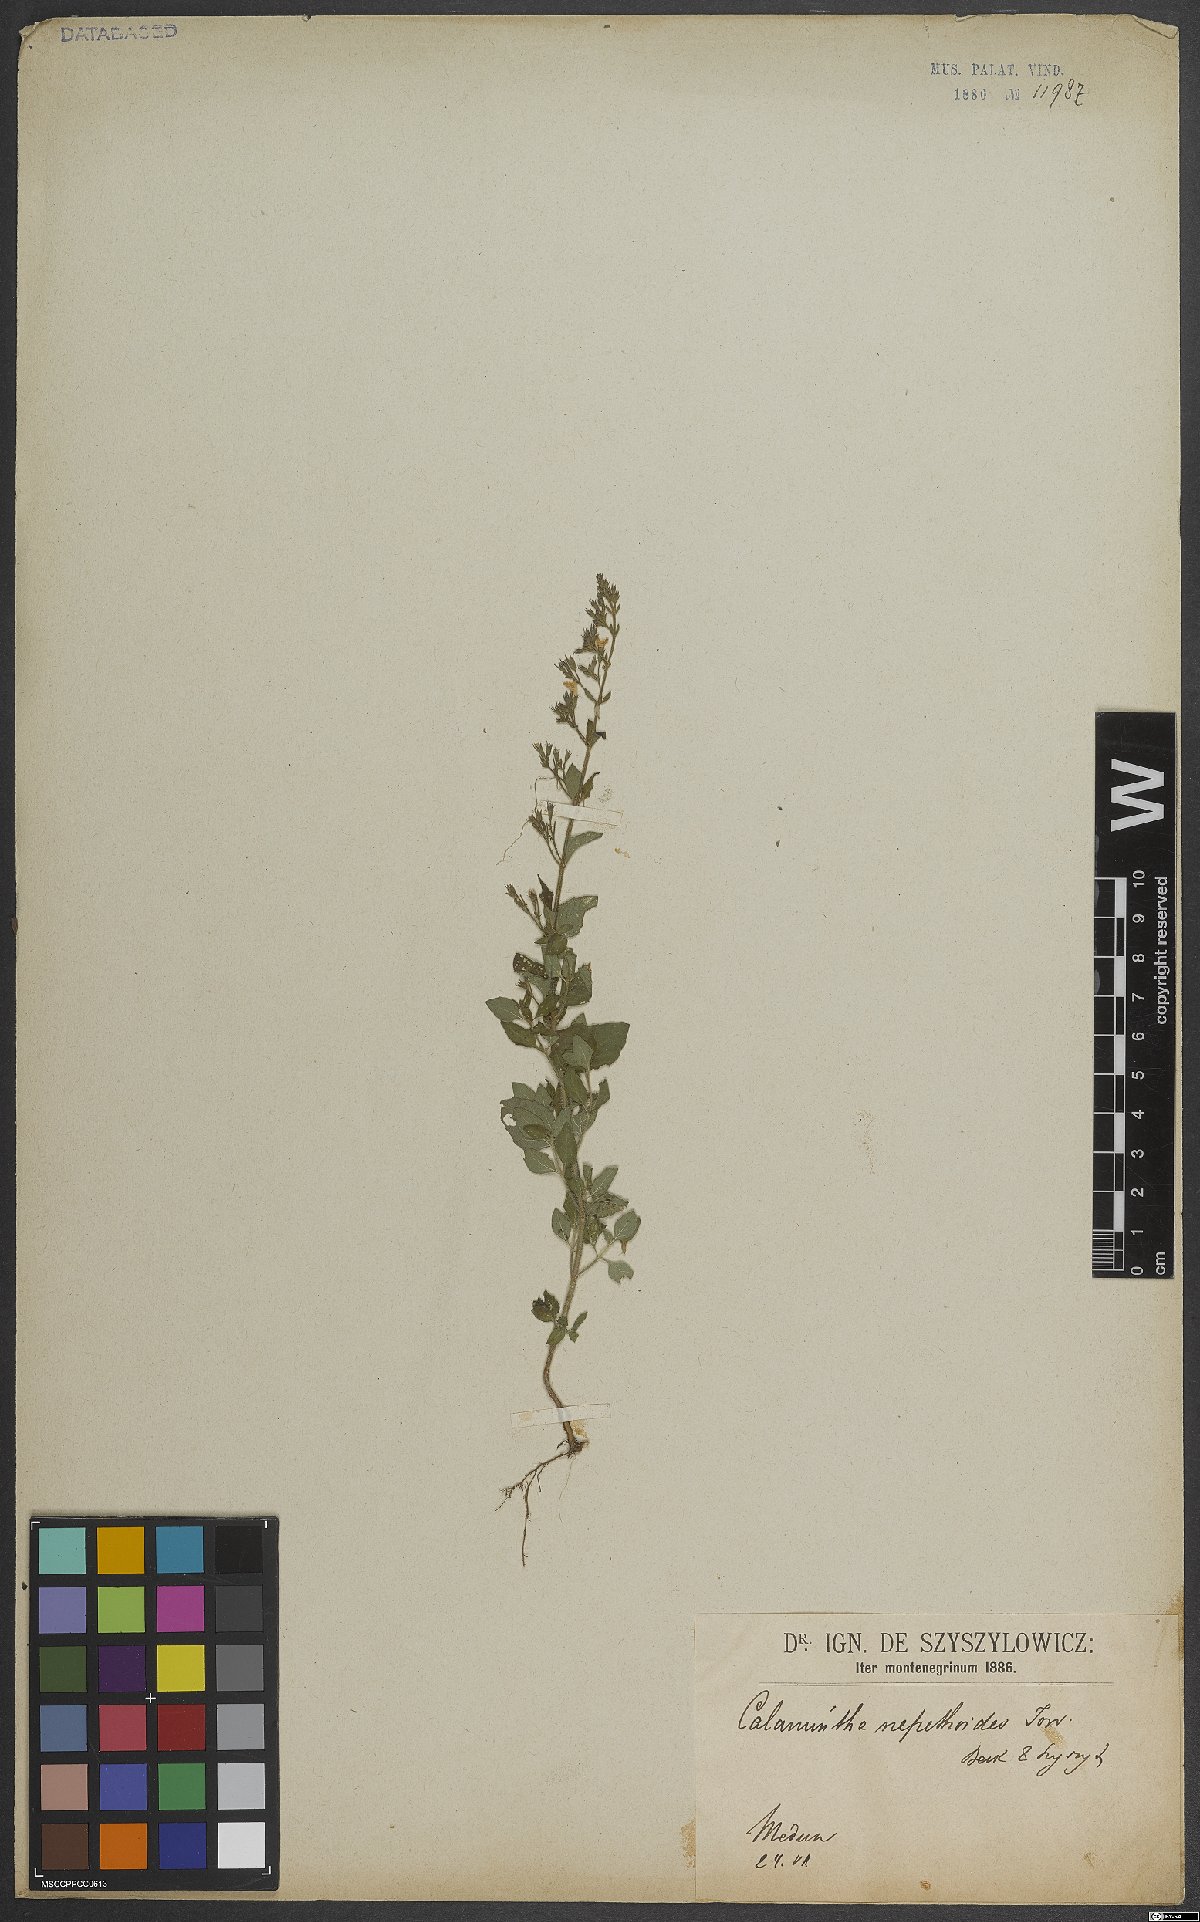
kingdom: Plantae
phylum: Tracheophyta
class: Magnoliopsida
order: Lamiales
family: Lamiaceae
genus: Clinopodium
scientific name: Clinopodium nepeta
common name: Lesser calamint
